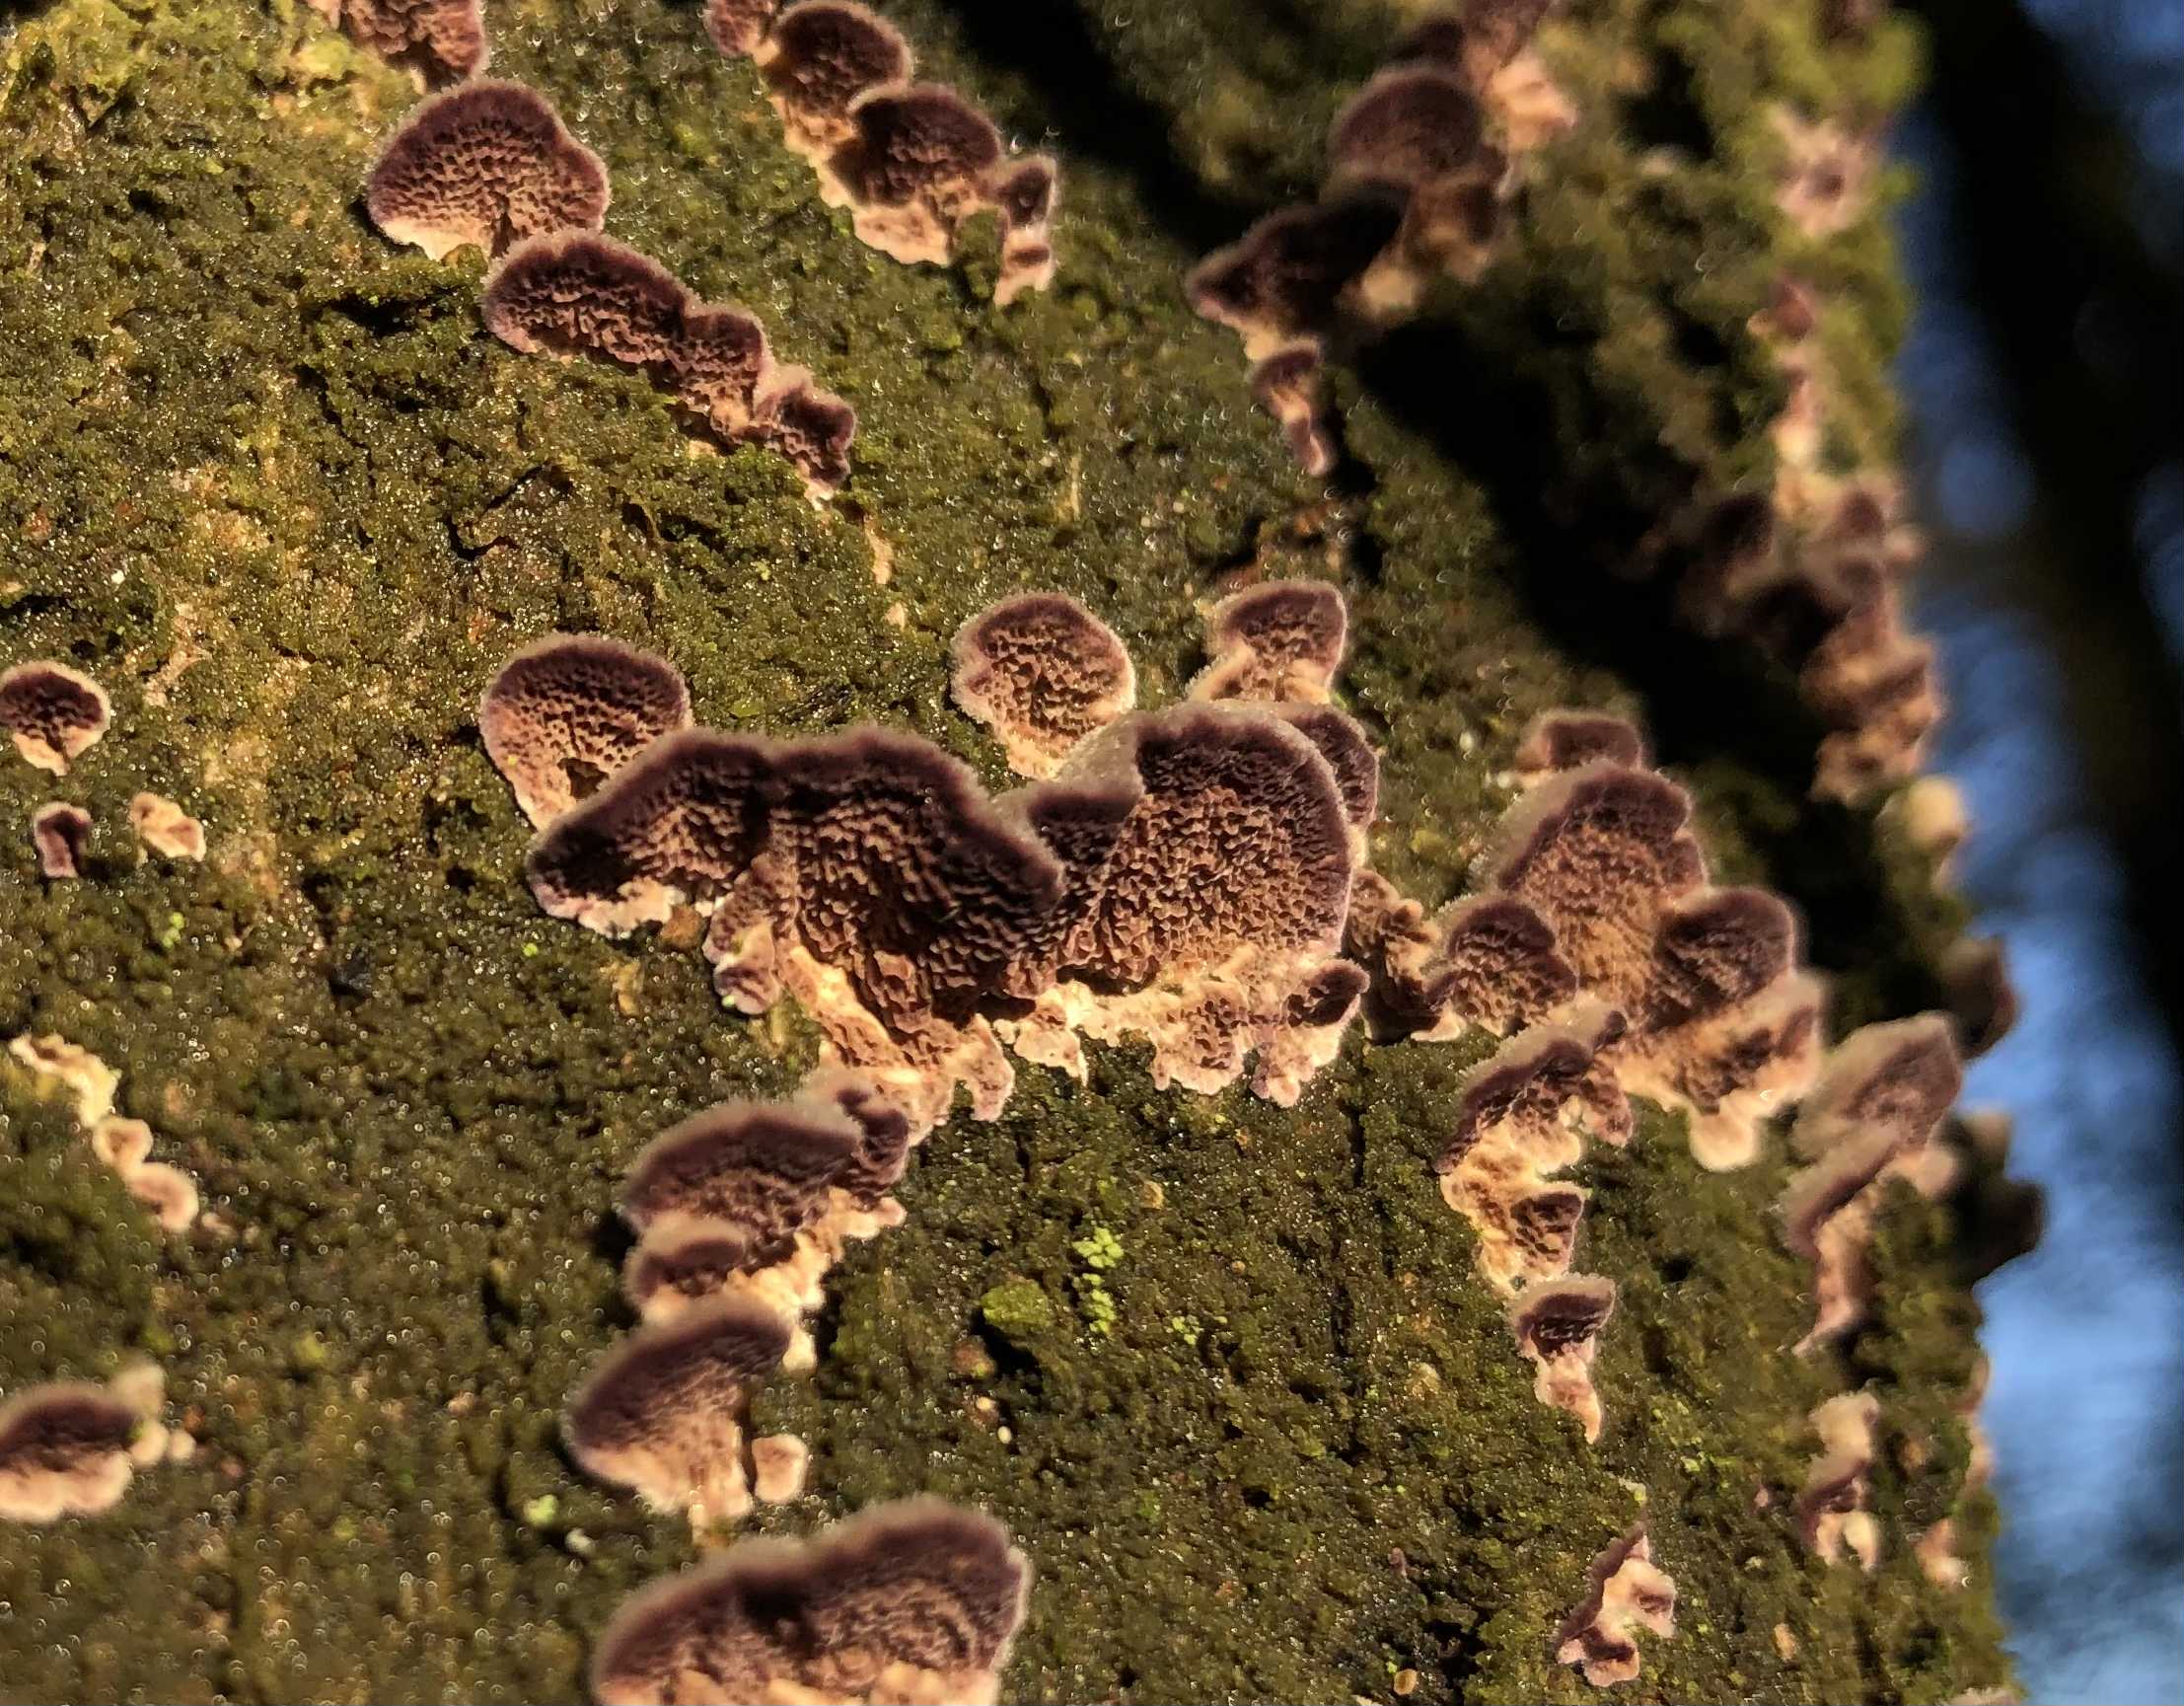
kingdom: Fungi
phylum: Basidiomycota
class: Agaricomycetes
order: Hymenochaetales
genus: Trichaptum
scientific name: Trichaptum abietinum
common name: almindelig violporesvamp
